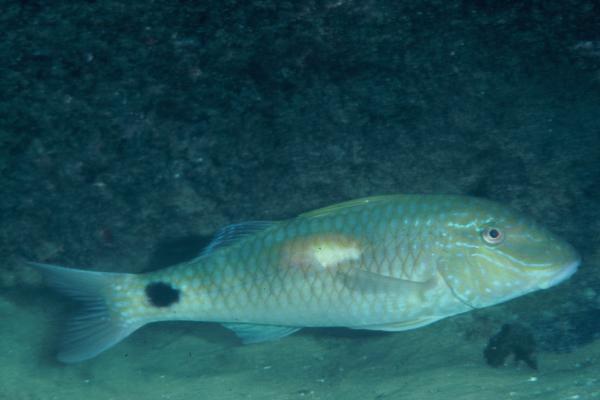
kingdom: Animalia
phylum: Chordata
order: Perciformes
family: Mullidae
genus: Parupeneus
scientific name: Parupeneus indicus
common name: Indian goatfish
